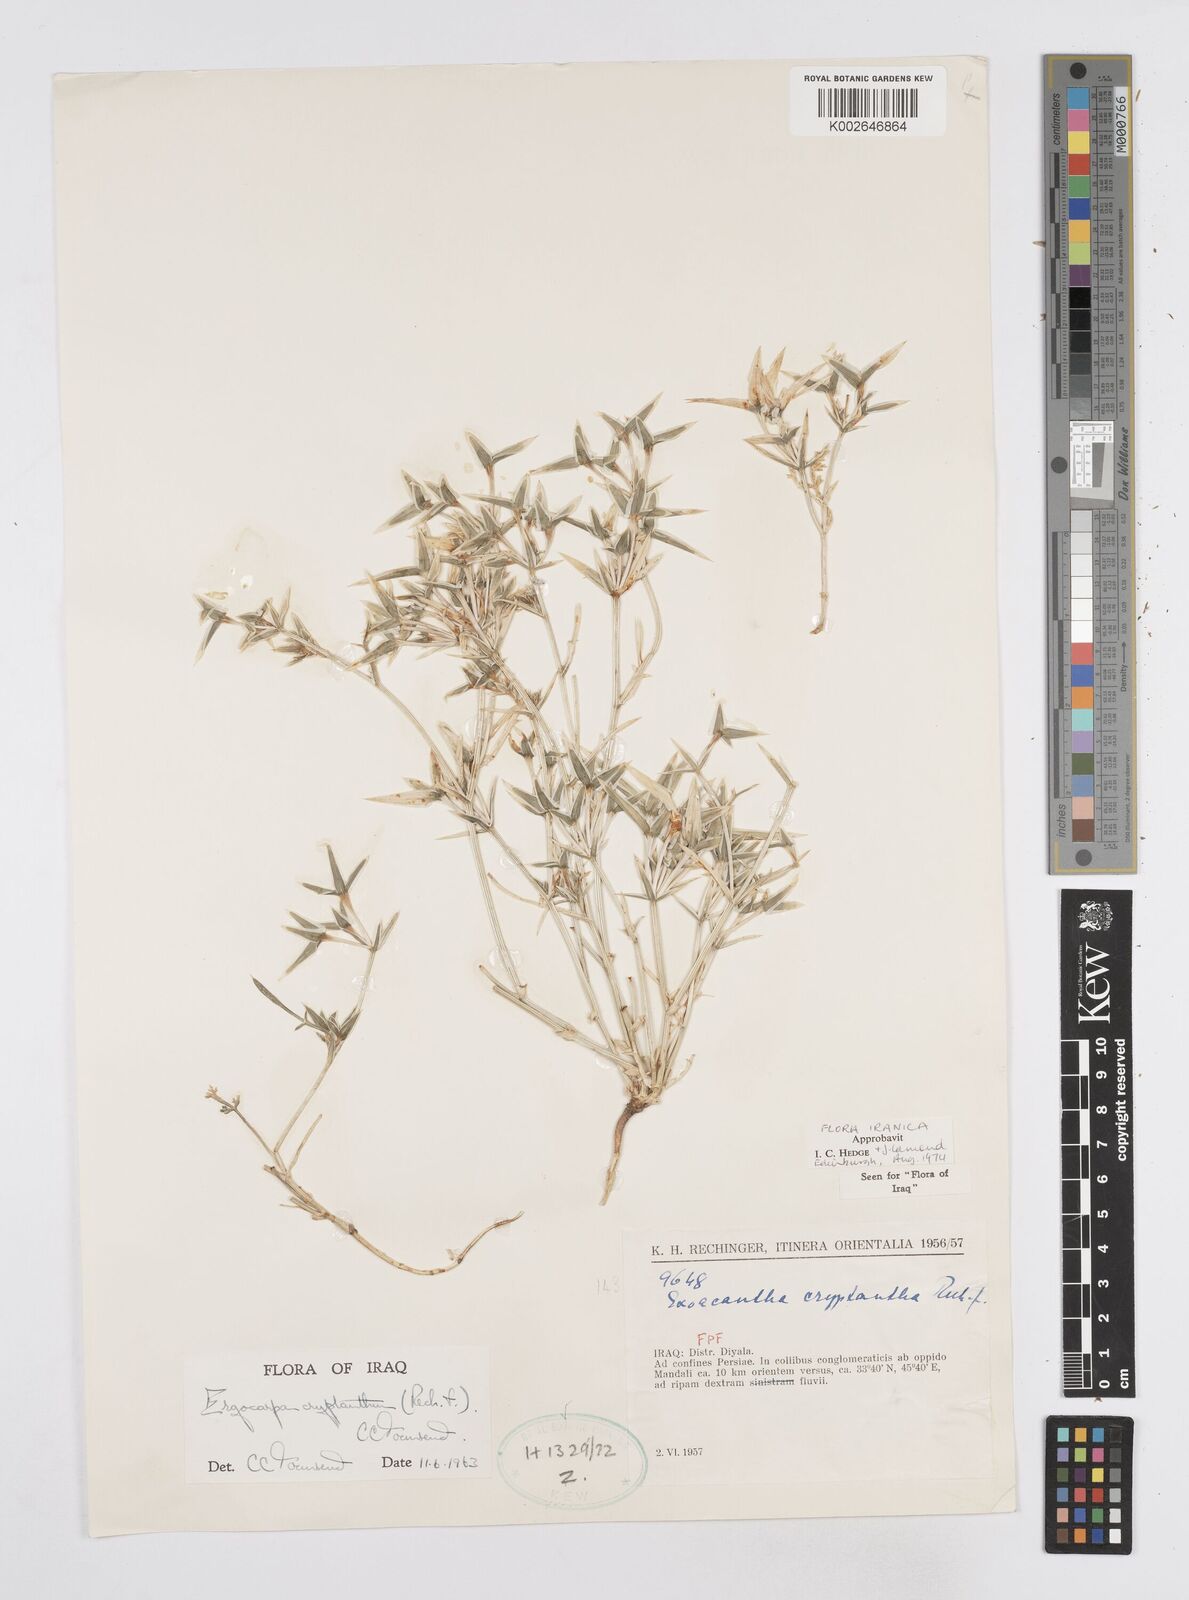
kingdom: Plantae
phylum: Tracheophyta
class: Magnoliopsida
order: Apiales
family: Apiaceae
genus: Ergocarpon
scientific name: Ergocarpon cryptanthum
